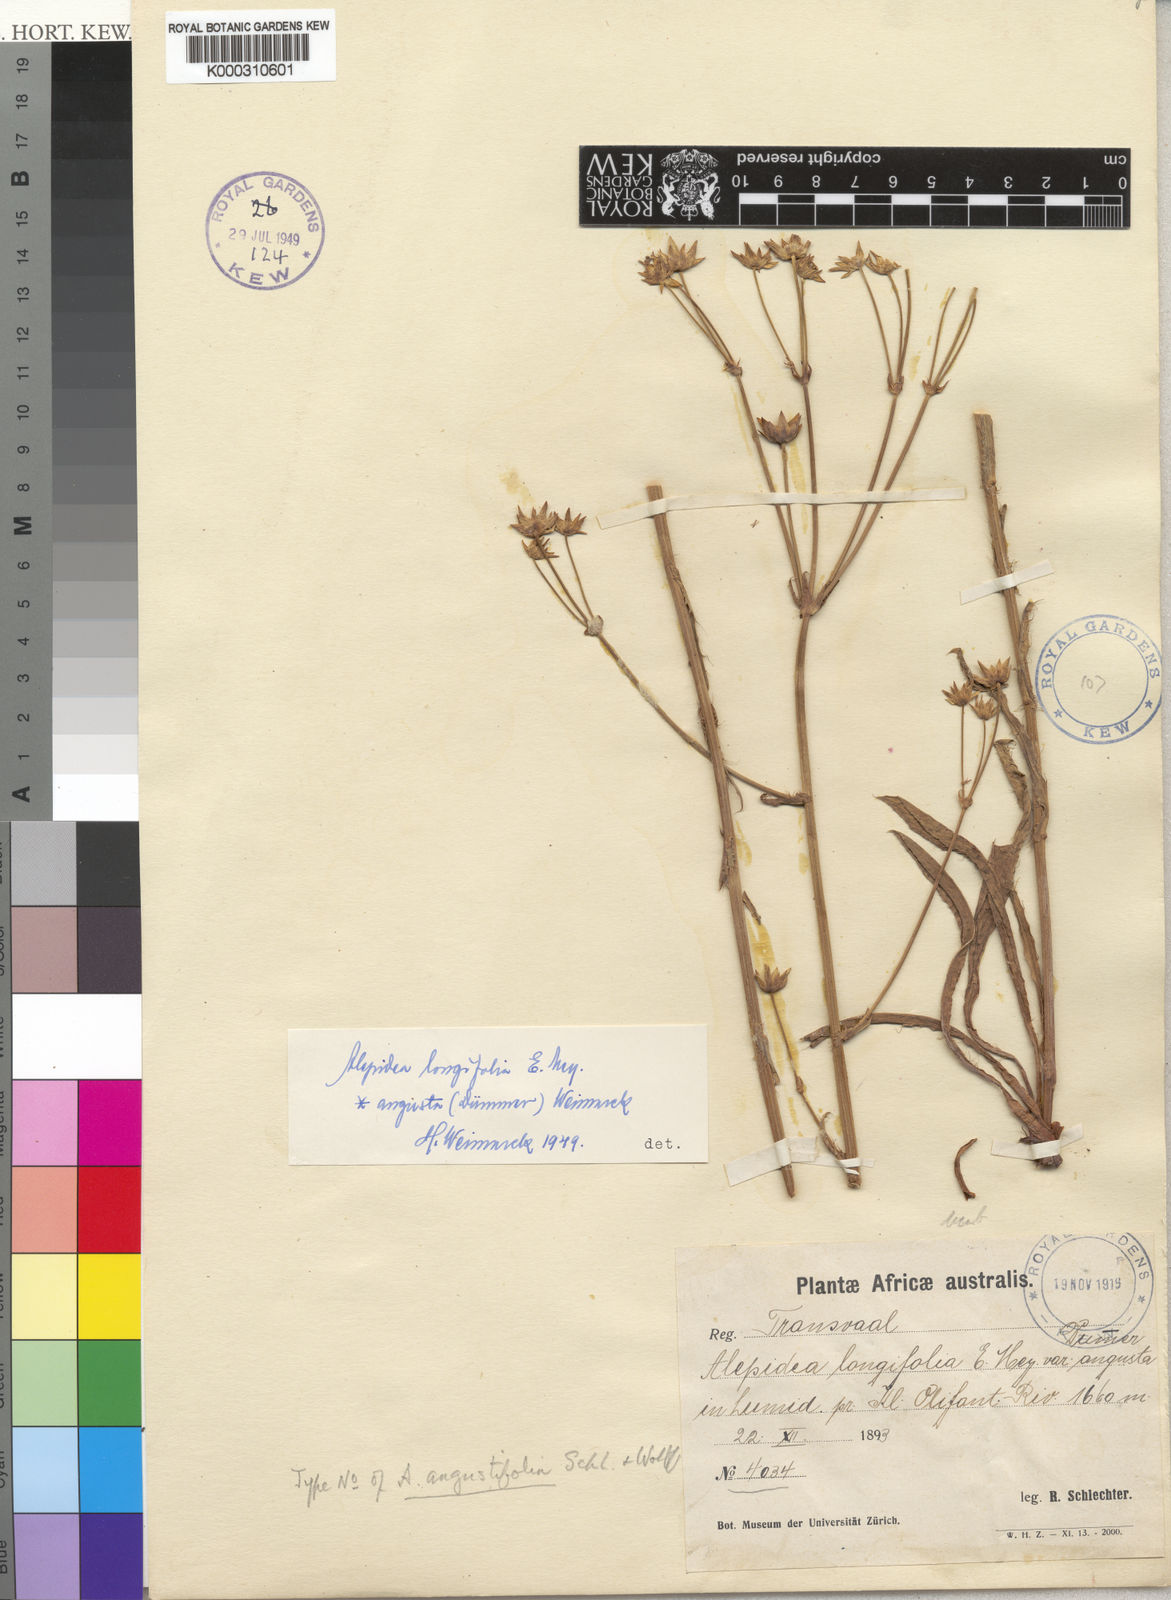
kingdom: Plantae
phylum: Tracheophyta
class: Magnoliopsida
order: Apiales
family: Apiaceae
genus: Alepidea
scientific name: Alepidea
